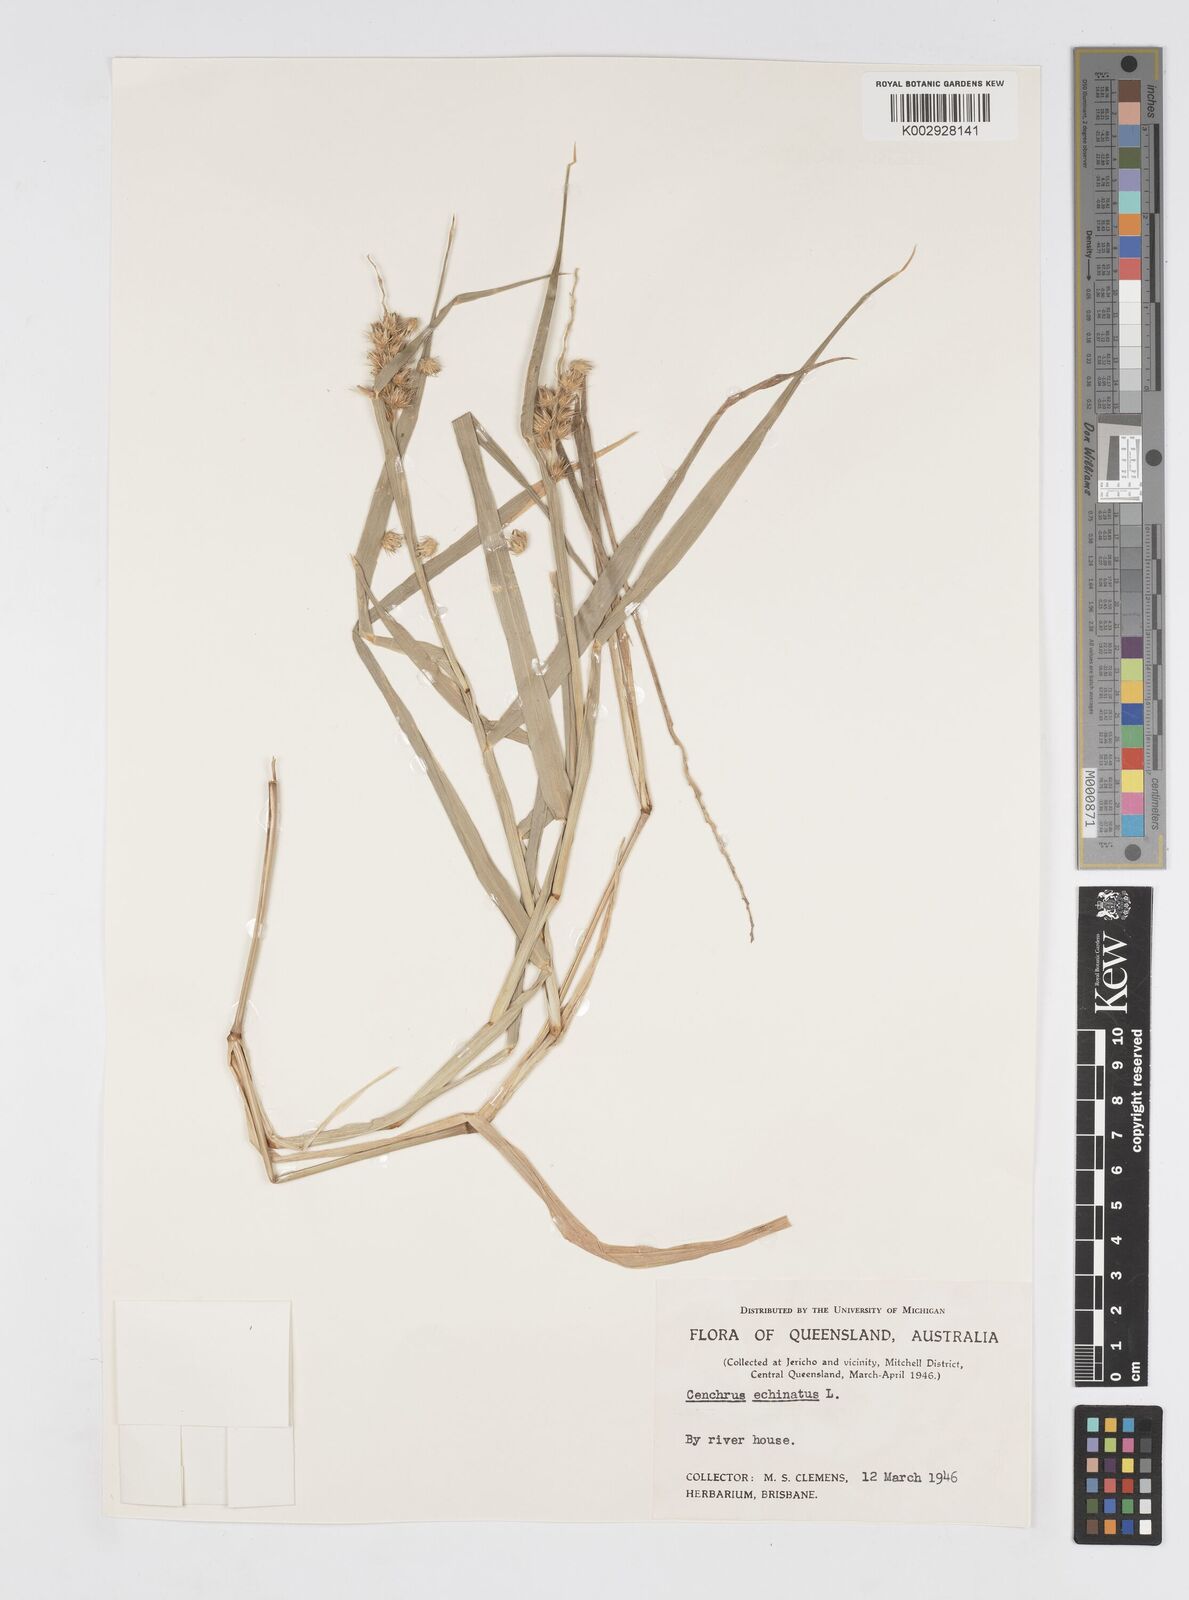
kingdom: Plantae
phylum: Tracheophyta
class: Liliopsida
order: Poales
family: Poaceae
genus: Cenchrus
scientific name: Cenchrus echinatus
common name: Southern sandbur
